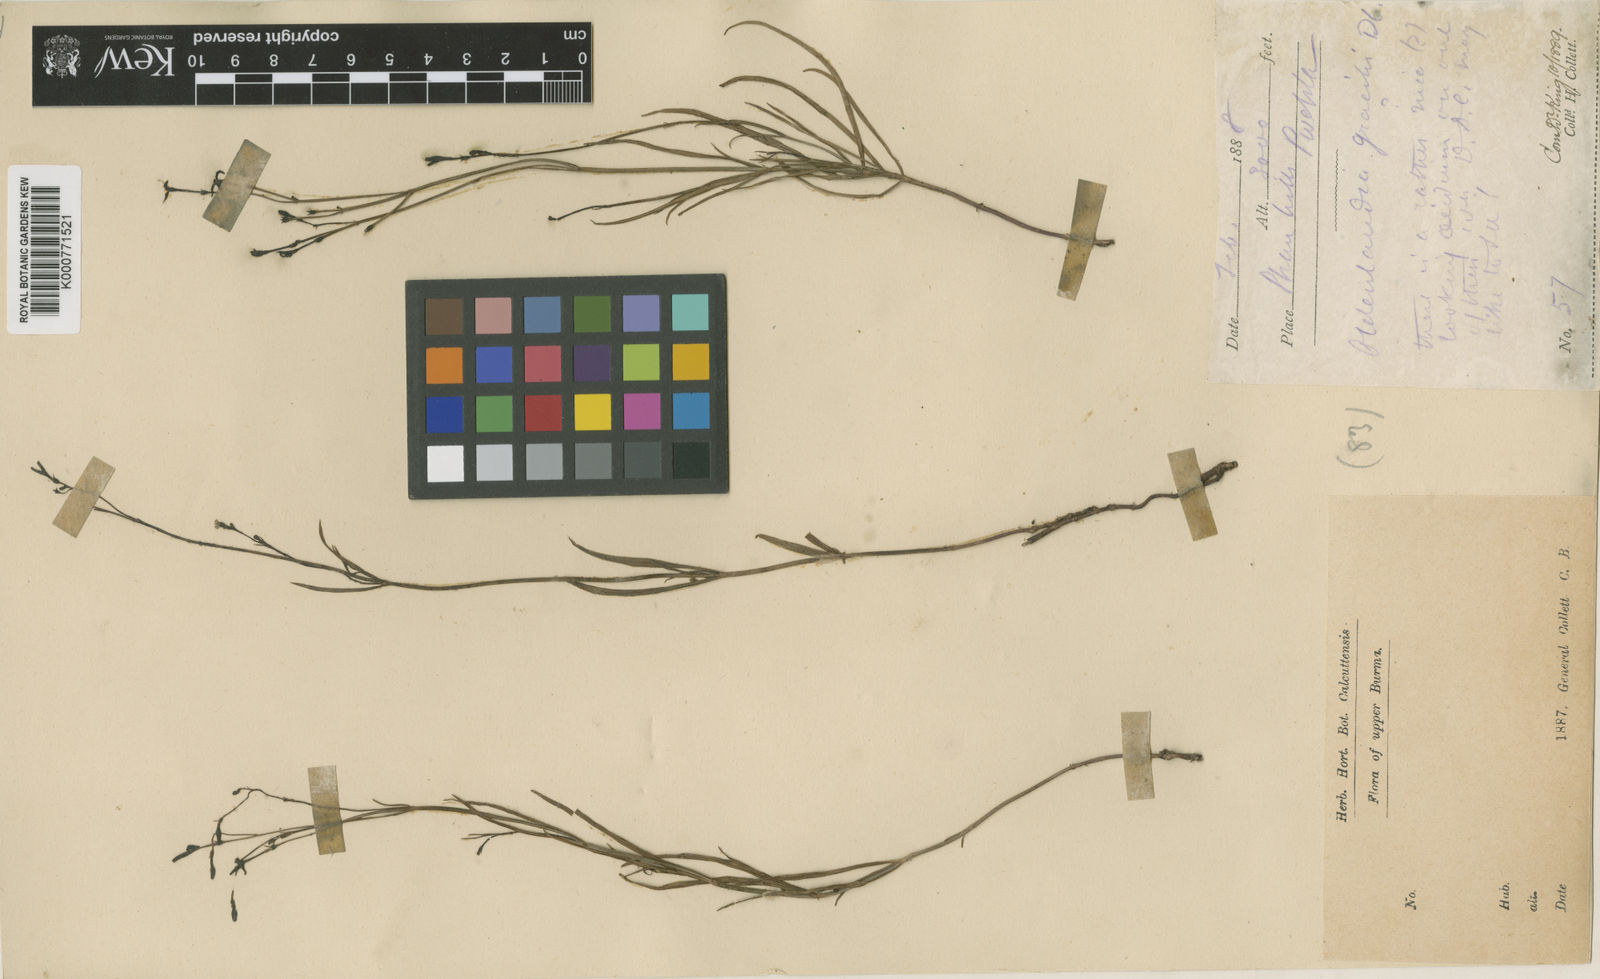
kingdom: Plantae
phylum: Tracheophyta
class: Magnoliopsida
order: Gentianales
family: Rubiaceae
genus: Kohautia
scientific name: Kohautia gracilis
